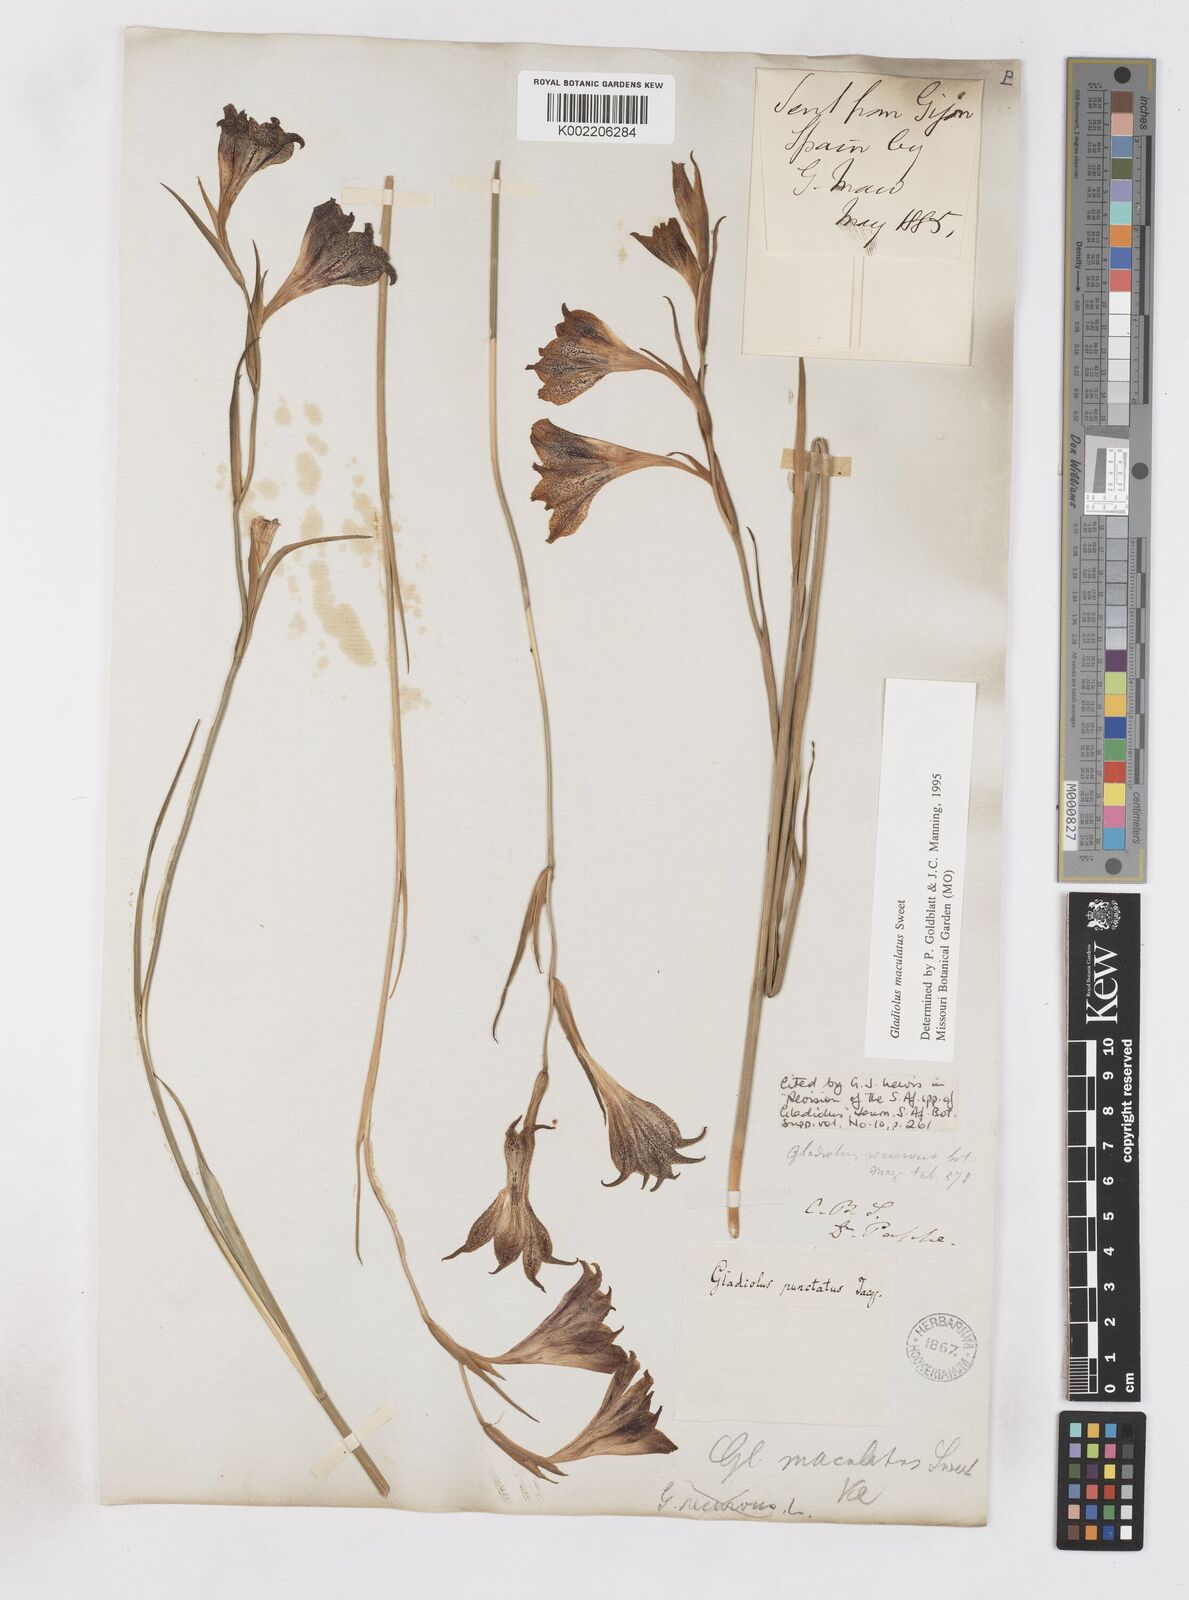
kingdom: Plantae
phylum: Tracheophyta
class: Liliopsida
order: Asparagales
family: Iridaceae
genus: Gladiolus
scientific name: Gladiolus maculatus
